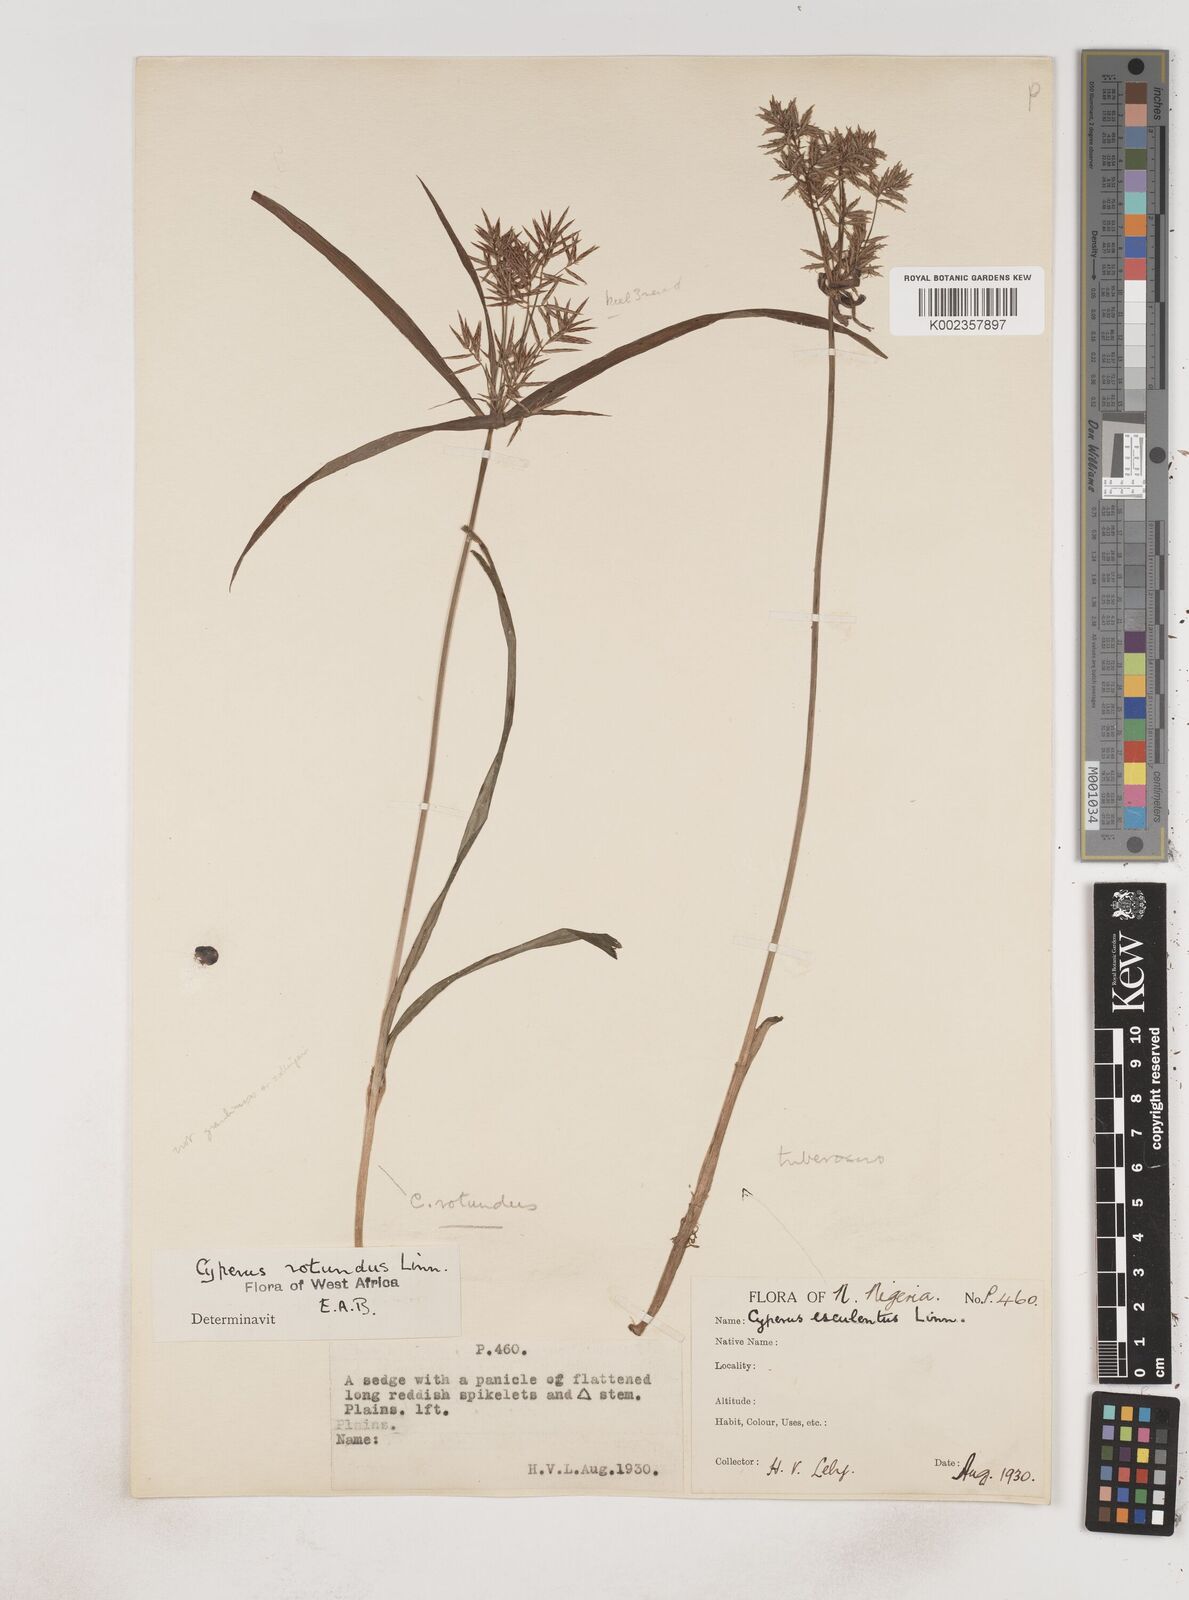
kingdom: Plantae
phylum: Tracheophyta
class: Liliopsida
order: Poales
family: Cyperaceae
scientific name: Cyperaceae
